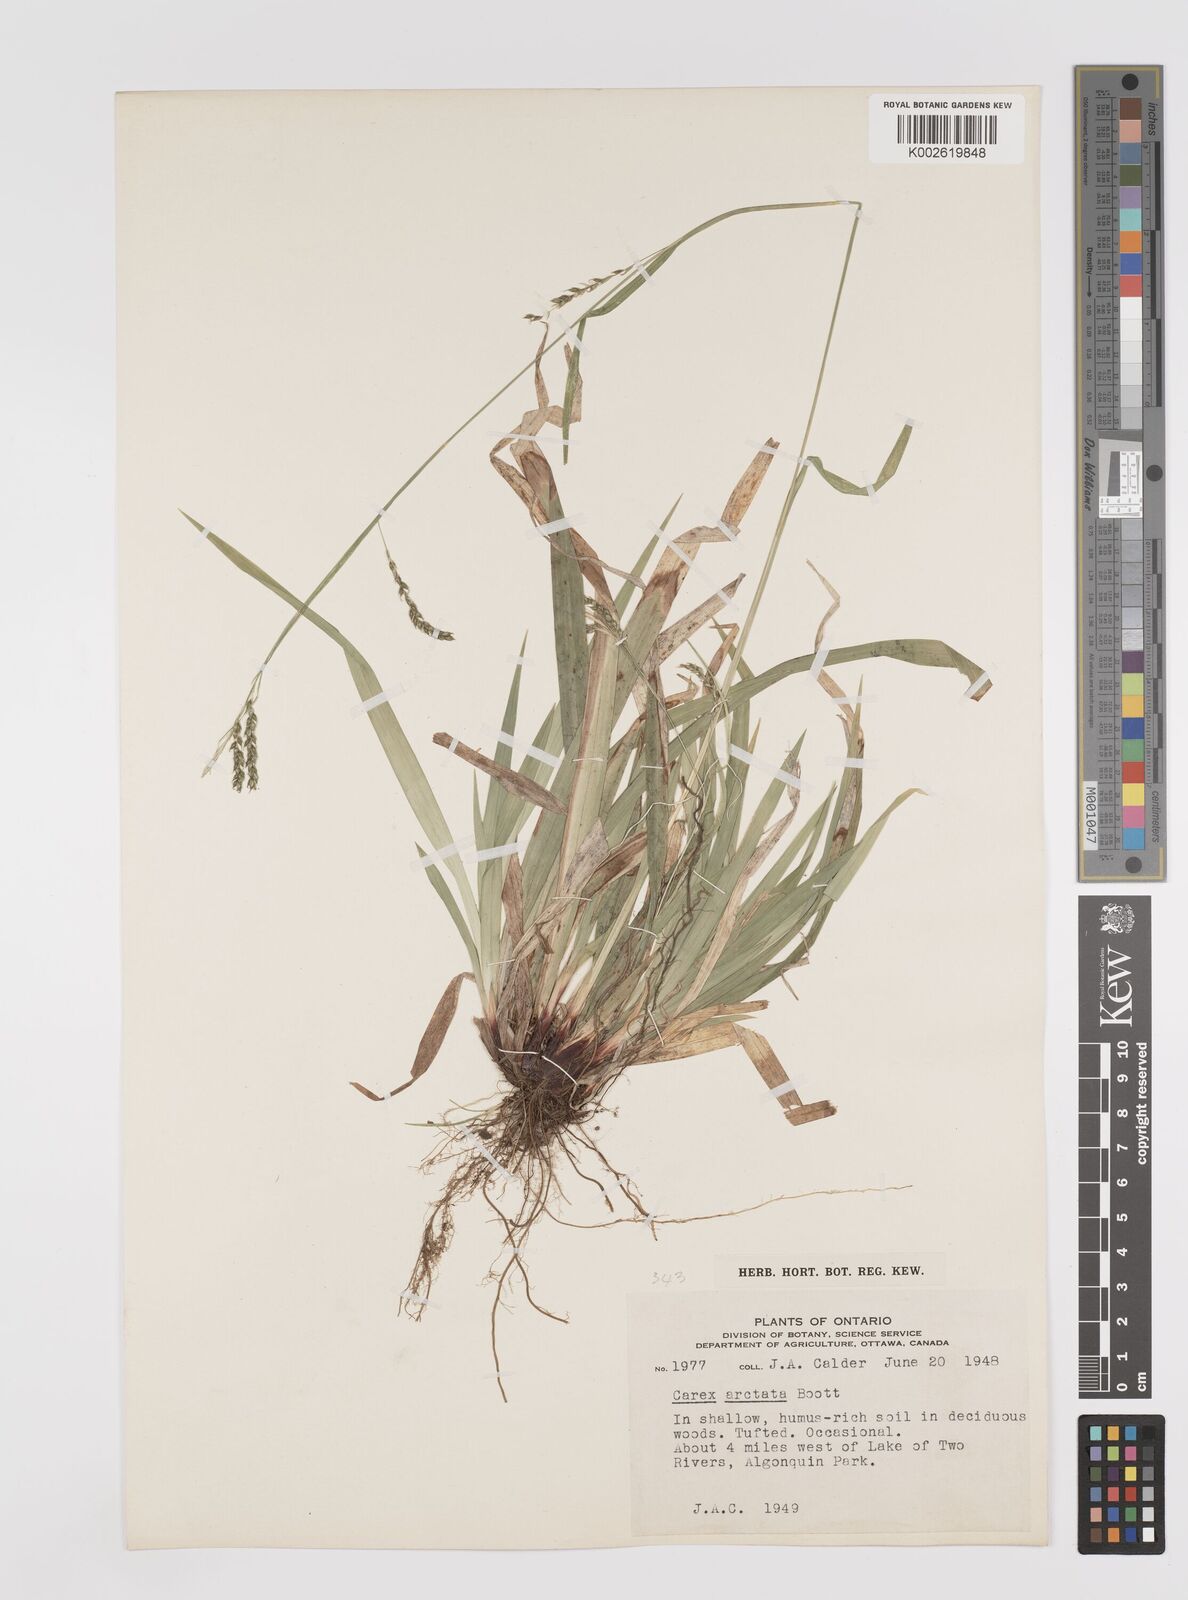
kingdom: Plantae
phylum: Tracheophyta
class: Liliopsida
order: Poales
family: Cyperaceae
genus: Carex
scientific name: Carex arctata
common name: Black sedge
